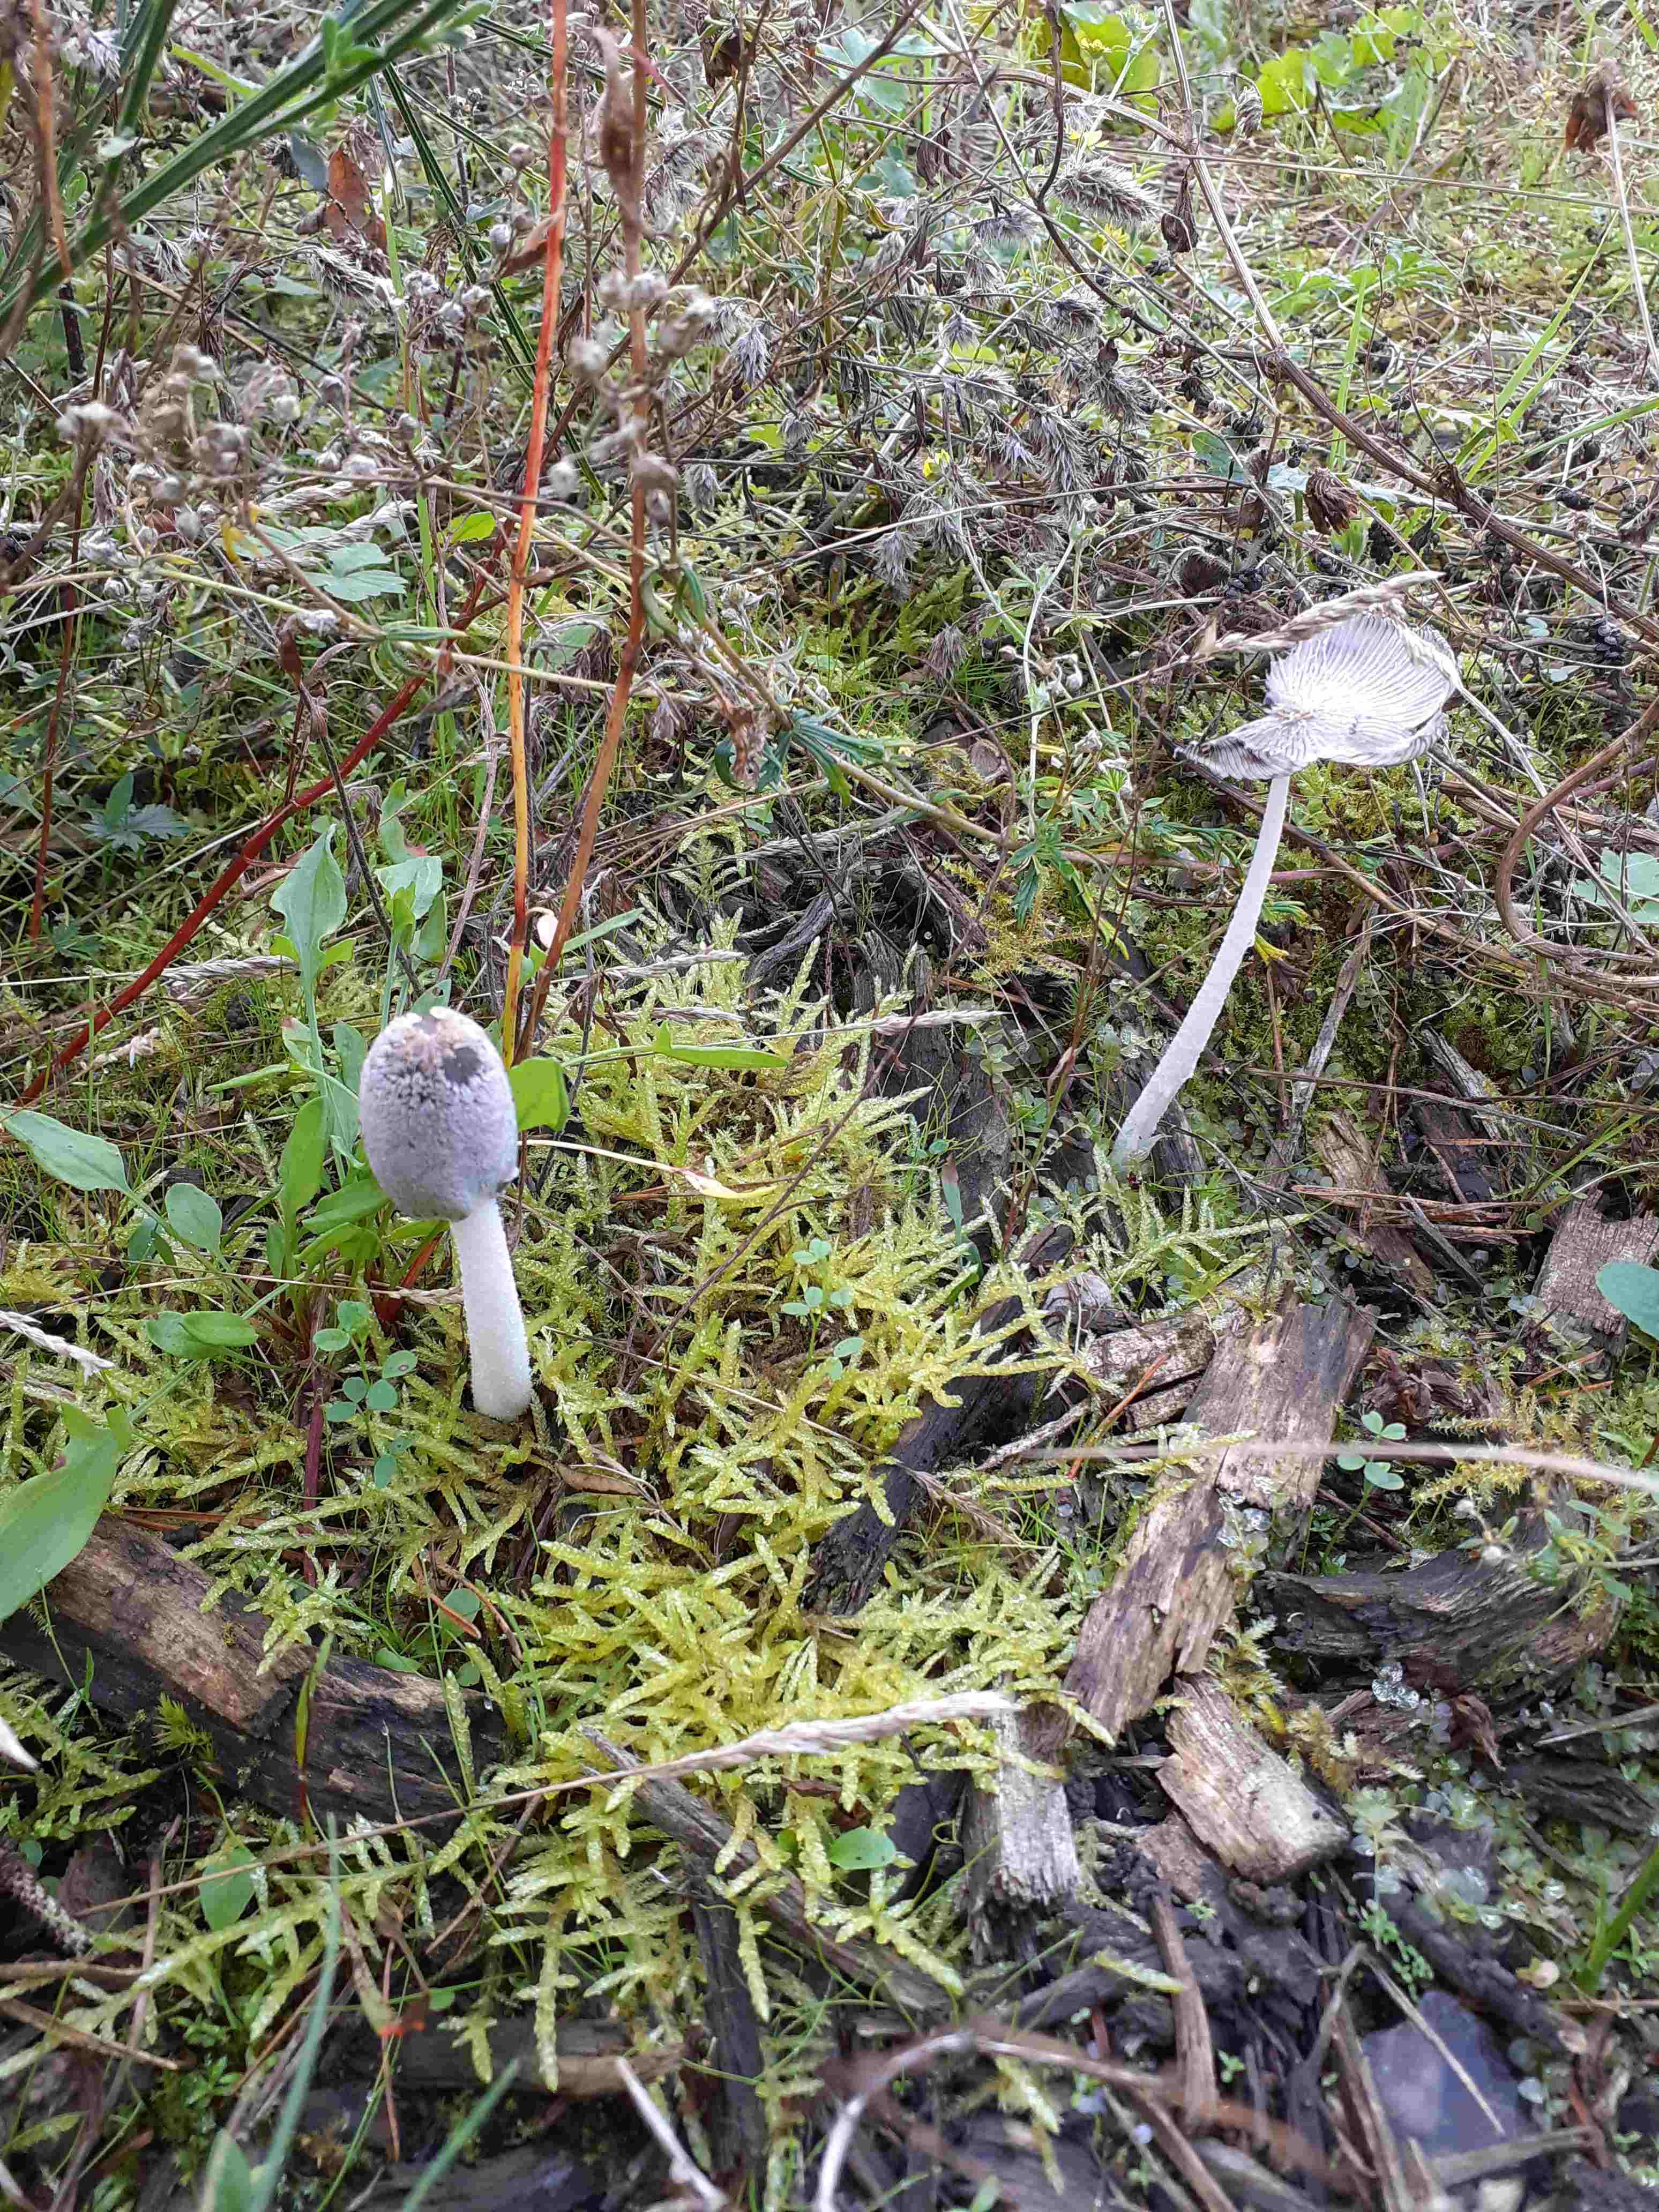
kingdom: Fungi
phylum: Basidiomycota
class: Agaricomycetes
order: Agaricales
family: Psathyrellaceae
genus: Coprinopsis
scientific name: Coprinopsis lagopus
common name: dunstokket blækhat
